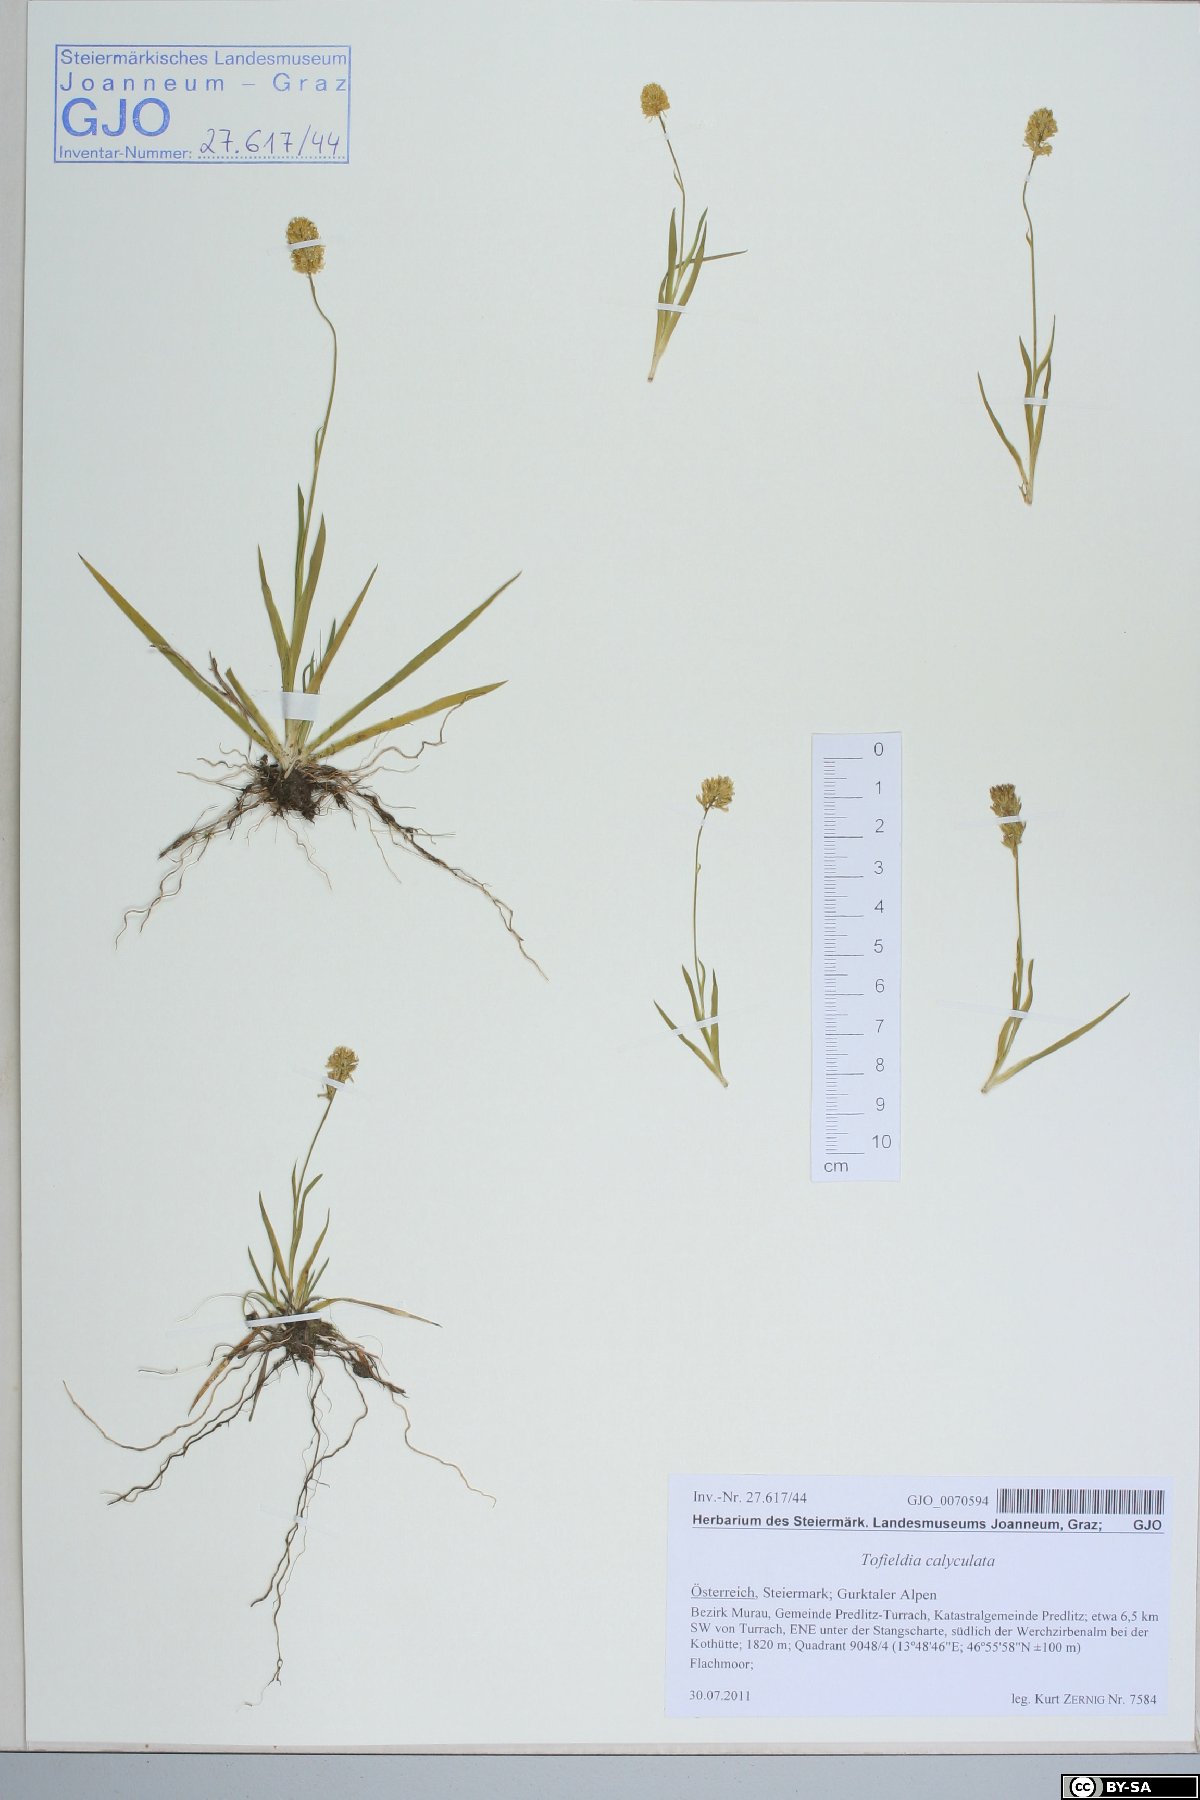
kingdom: Plantae
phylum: Tracheophyta
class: Liliopsida
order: Alismatales
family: Tofieldiaceae
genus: Tofieldia
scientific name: Tofieldia calyculata
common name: German-asphodel
